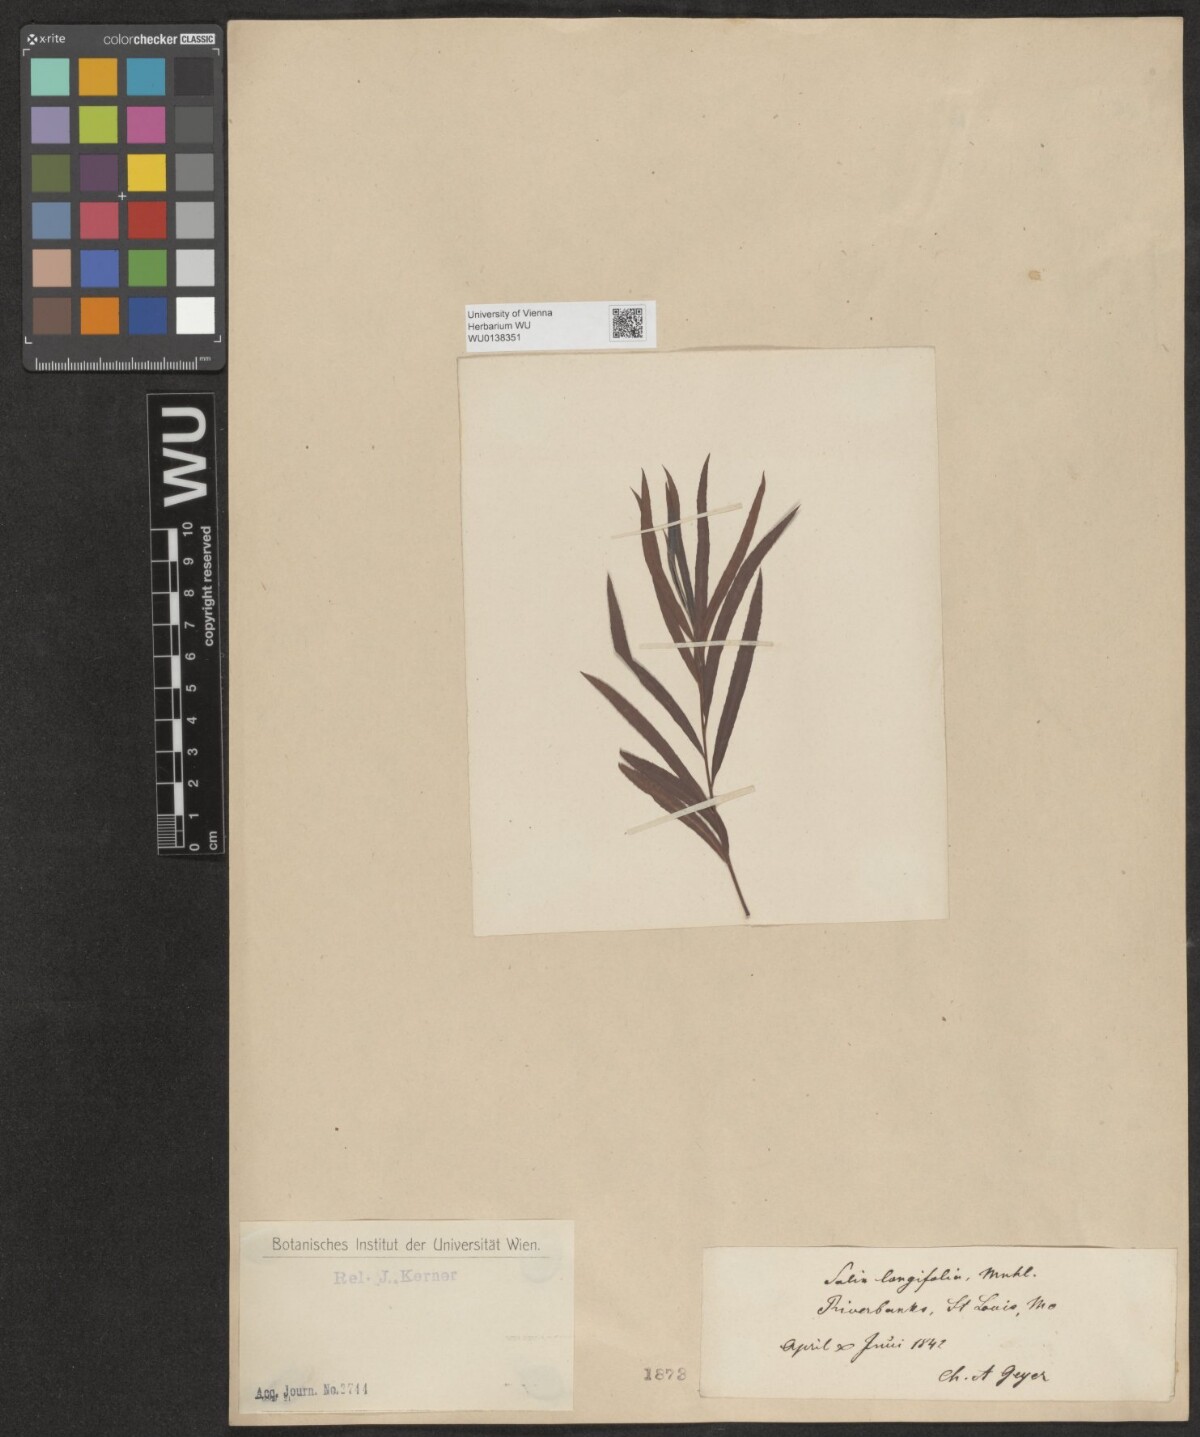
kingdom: Plantae
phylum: Tracheophyta
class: Magnoliopsida
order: Malpighiales
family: Salicaceae
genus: Salix
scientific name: Salix interior
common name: Sandbar willow
